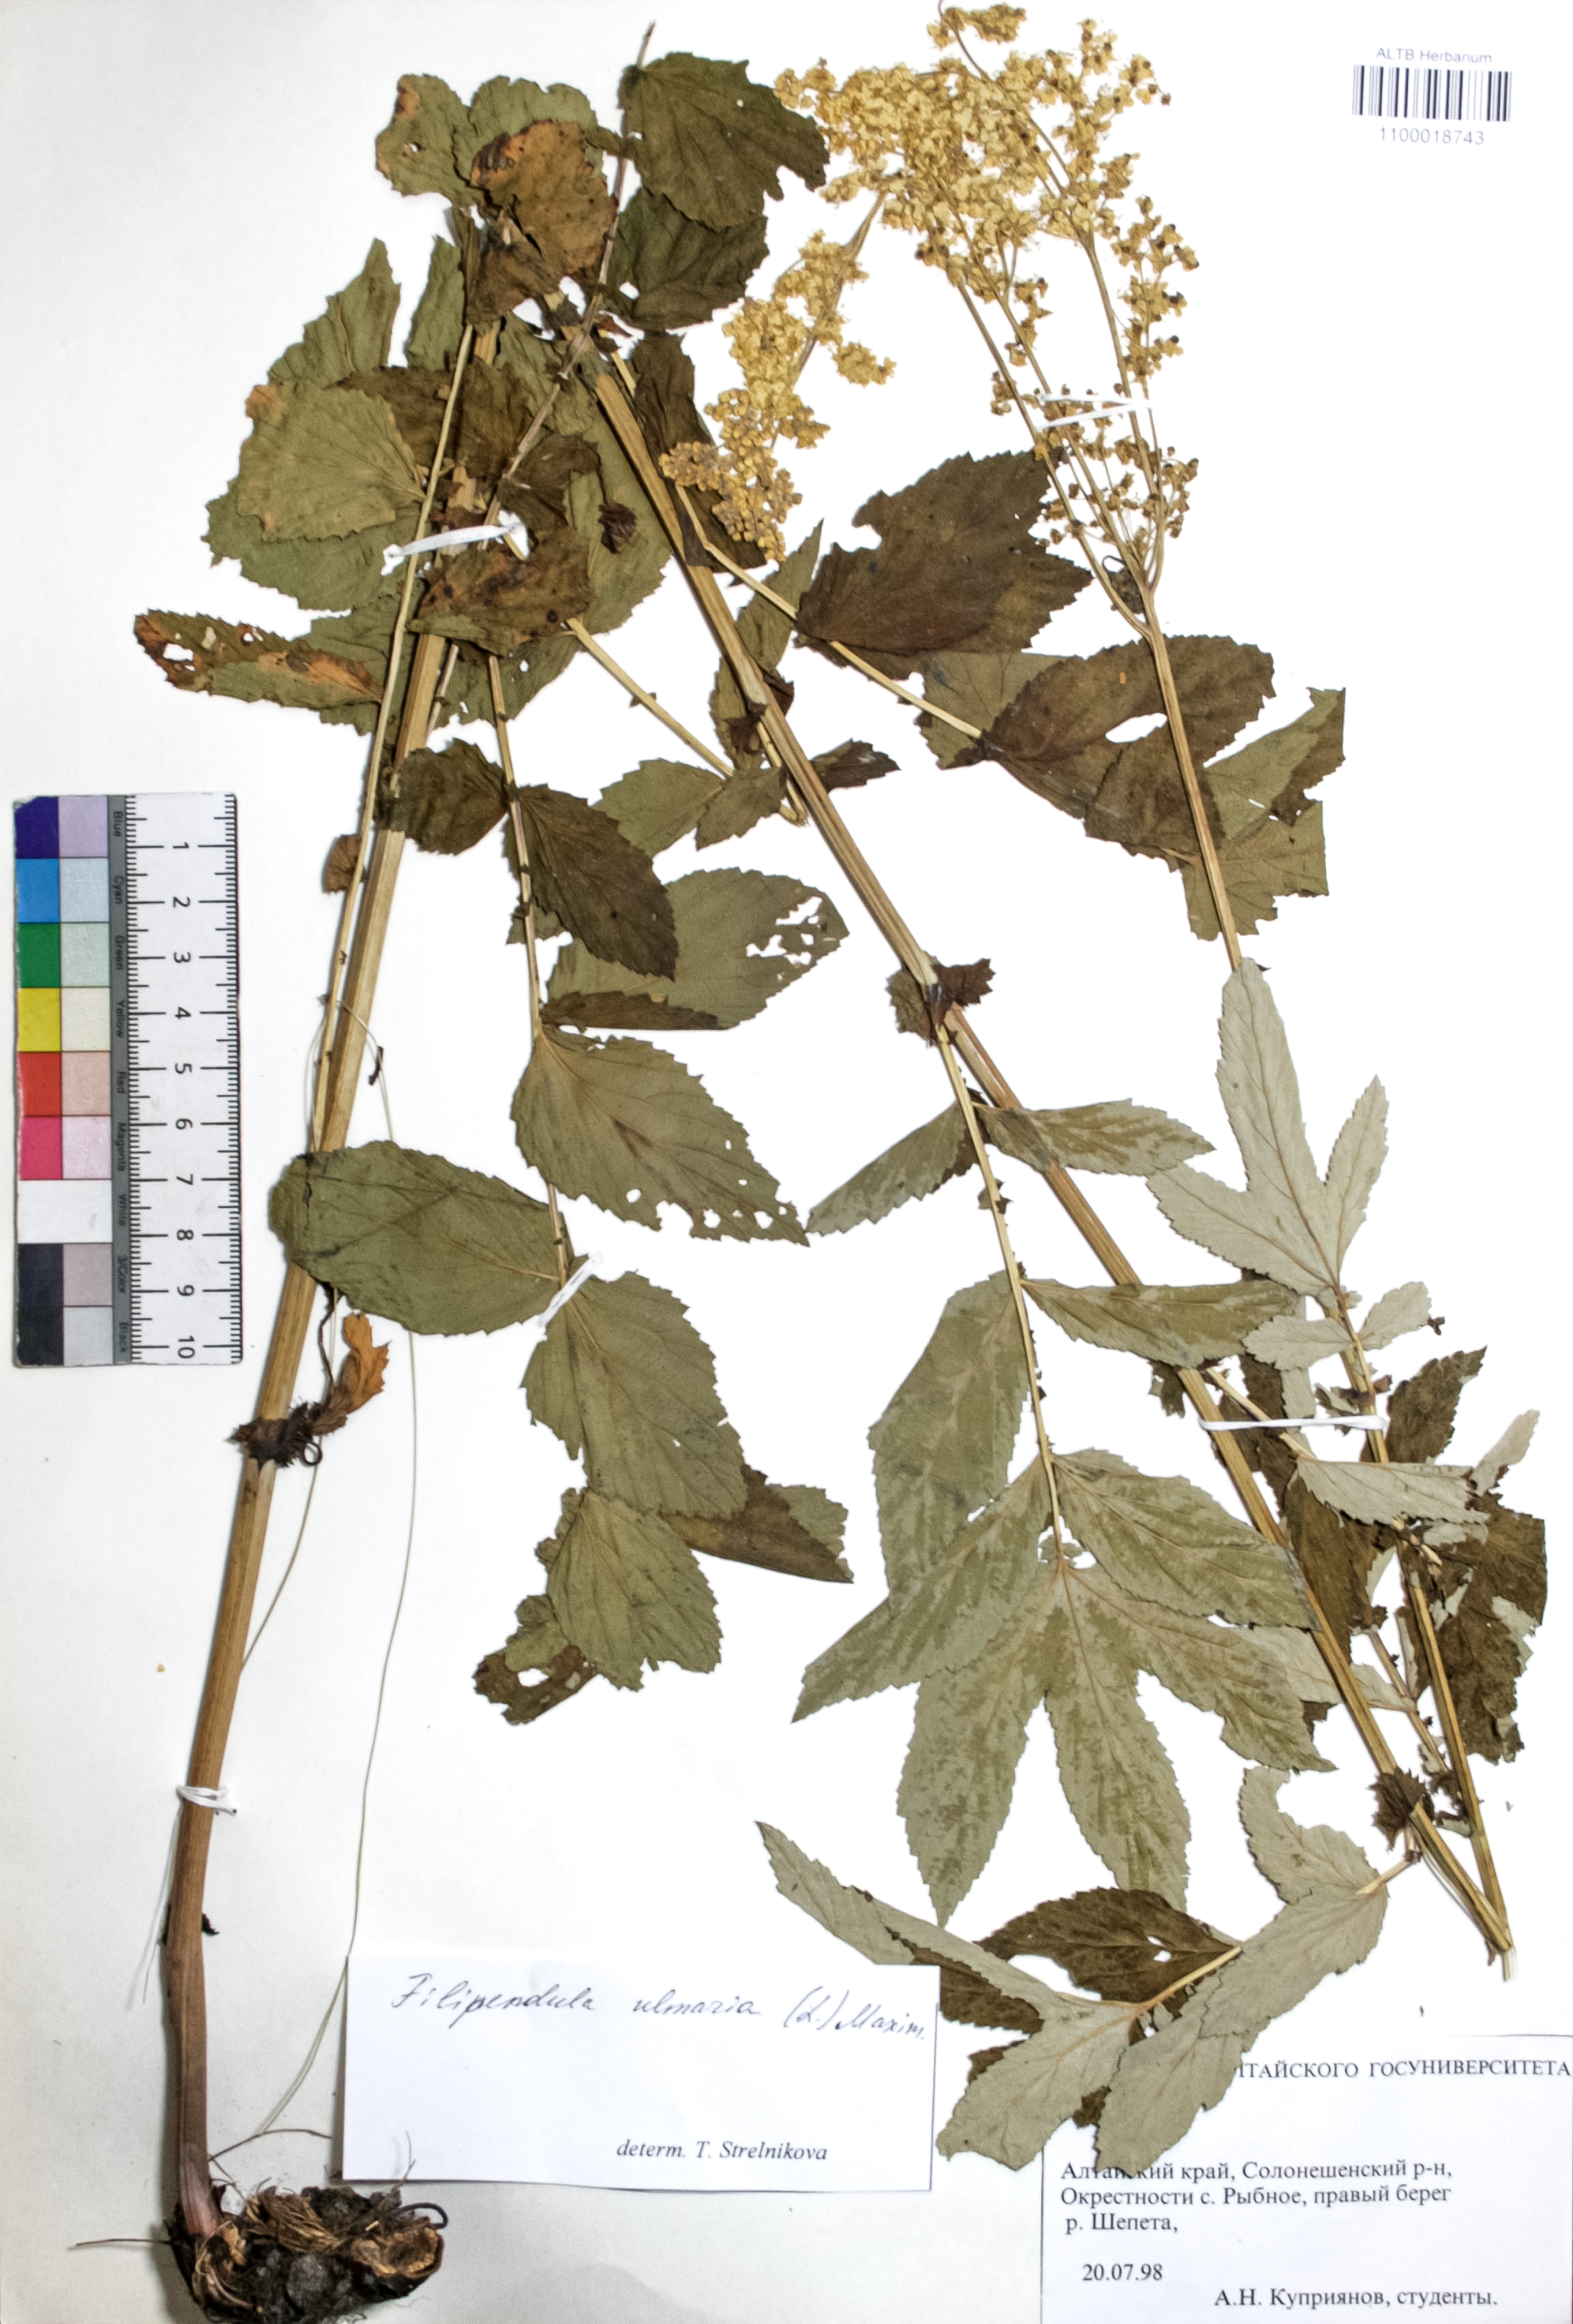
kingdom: Plantae
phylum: Tracheophyta
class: Magnoliopsida
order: Rosales
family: Rosaceae
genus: Filipendula
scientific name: Filipendula ulmaria
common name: Meadowsweet
